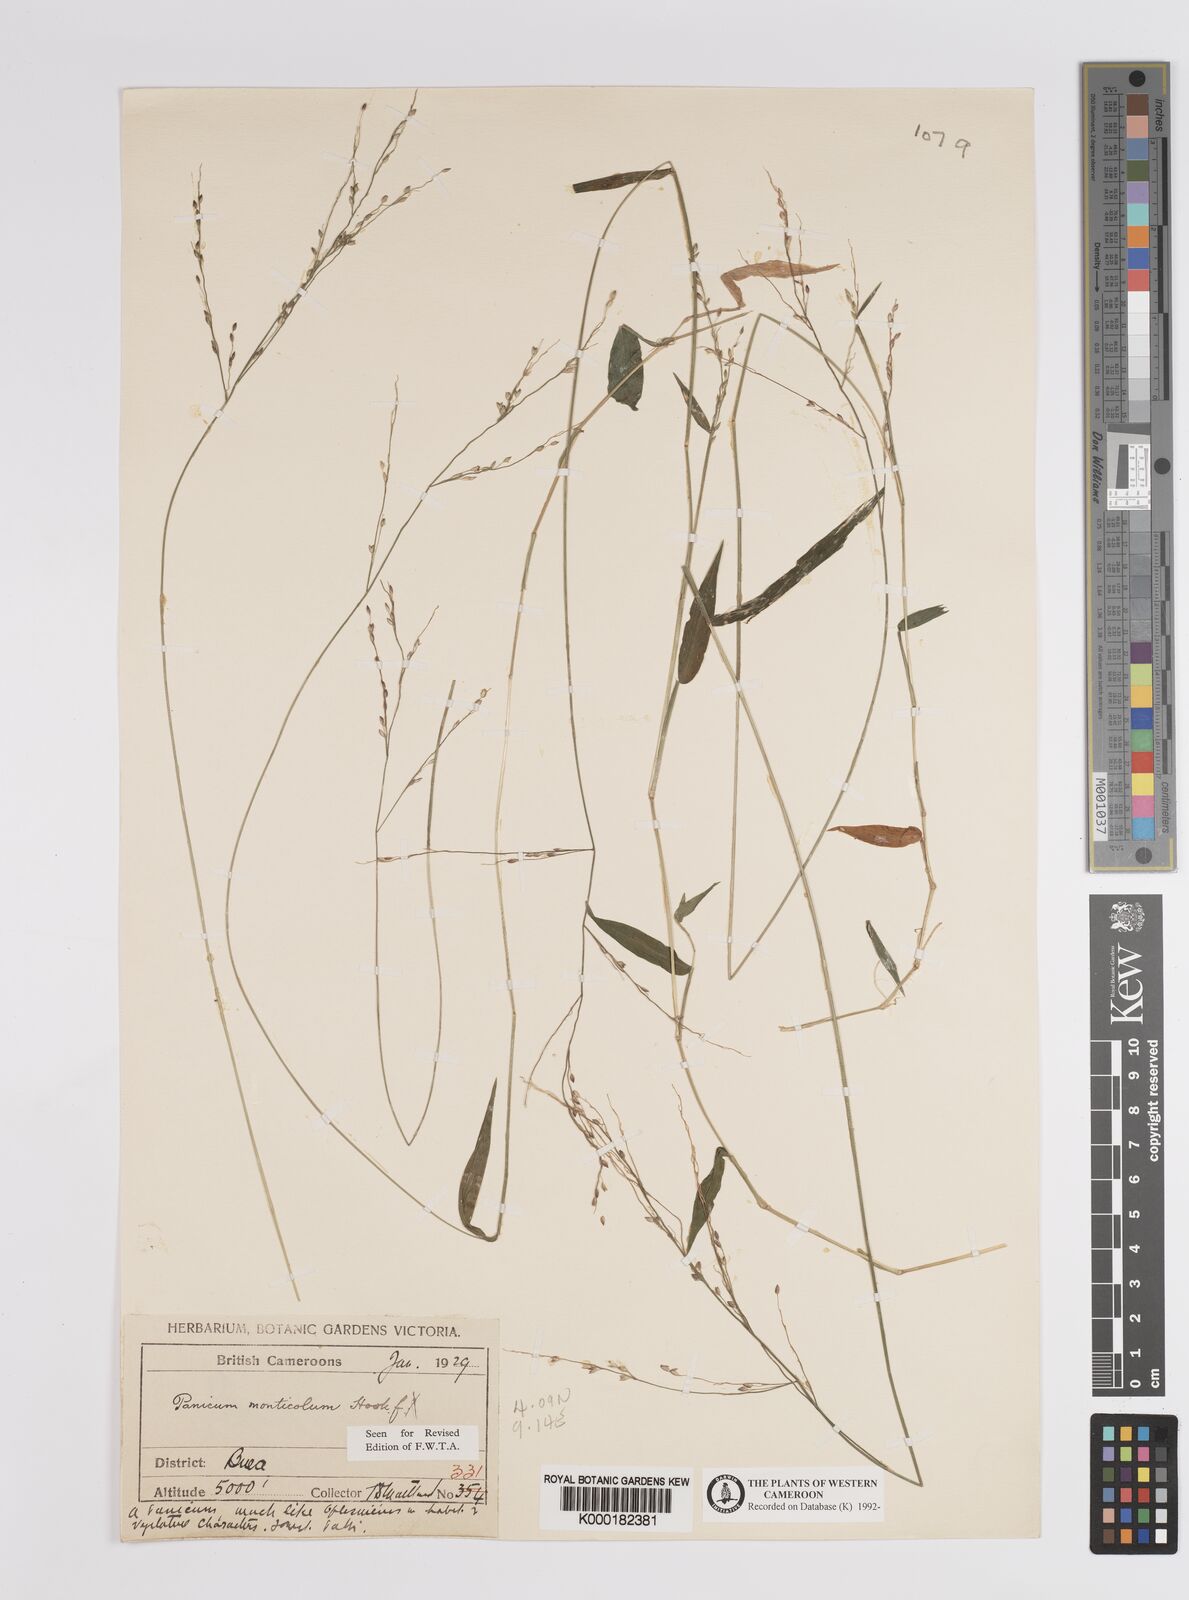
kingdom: Plantae
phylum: Tracheophyta
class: Liliopsida
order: Poales
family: Poaceae
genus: Panicum
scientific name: Panicum monticola
